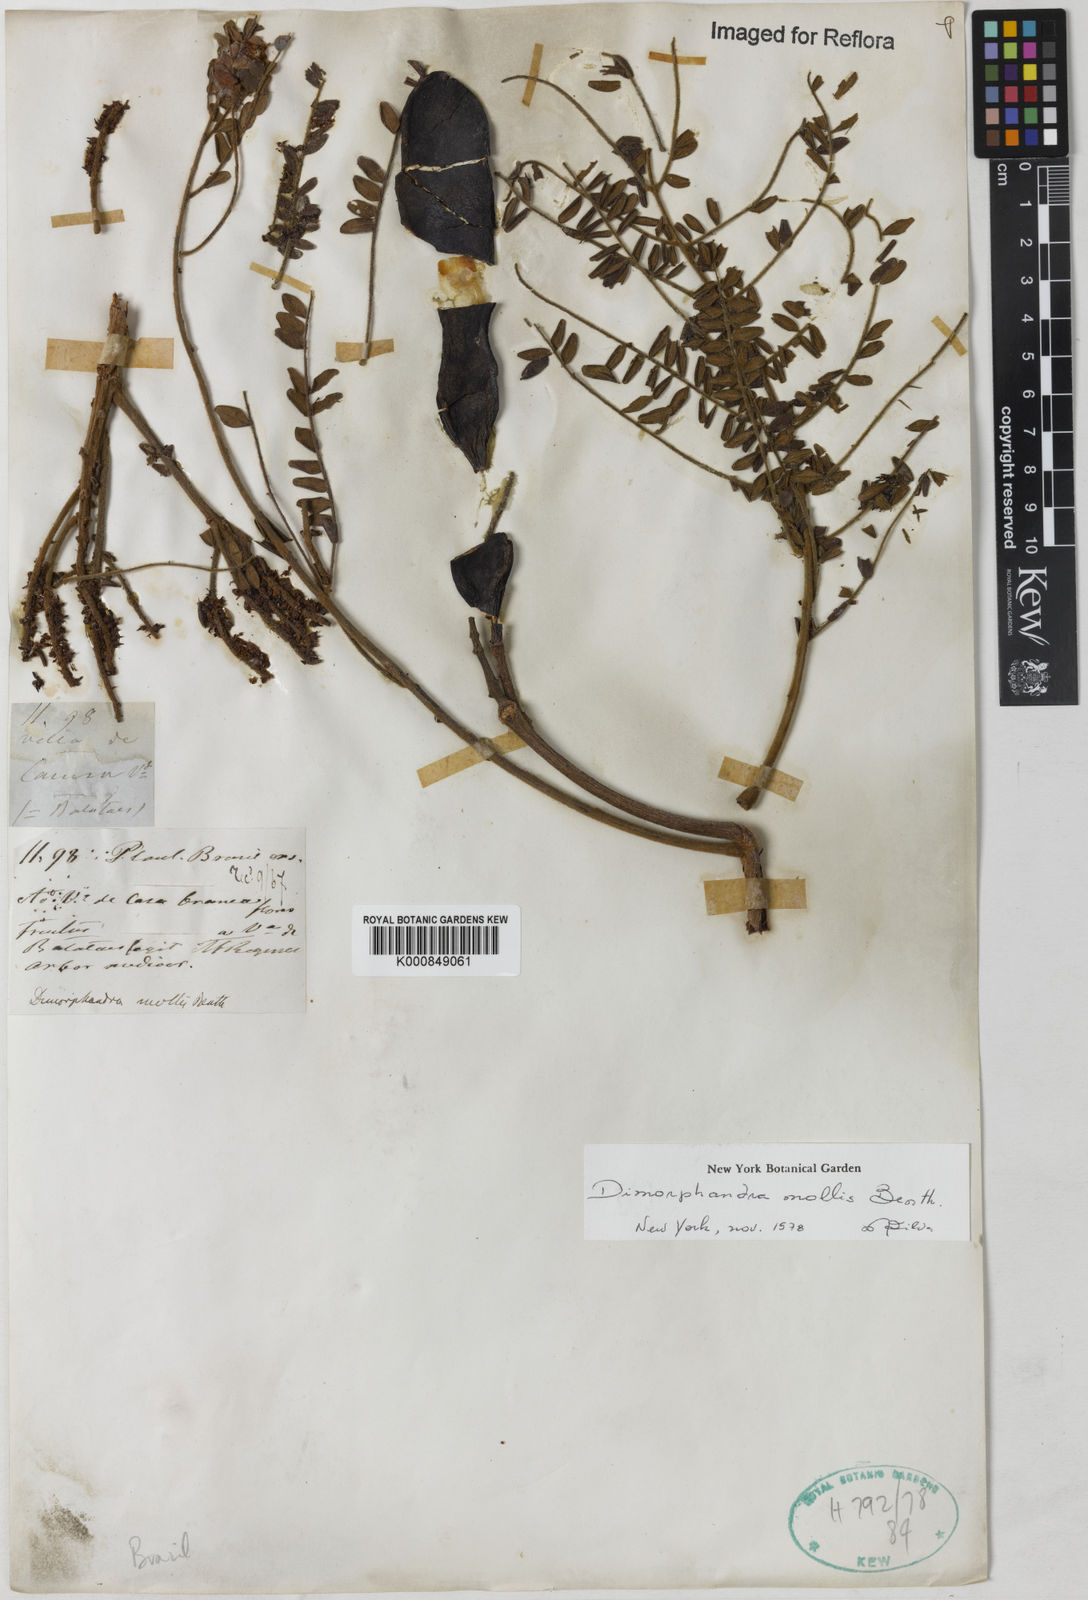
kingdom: Plantae
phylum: Tracheophyta
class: Magnoliopsida
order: Fabales
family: Fabaceae
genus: Dimorphandra
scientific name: Dimorphandra mollis
